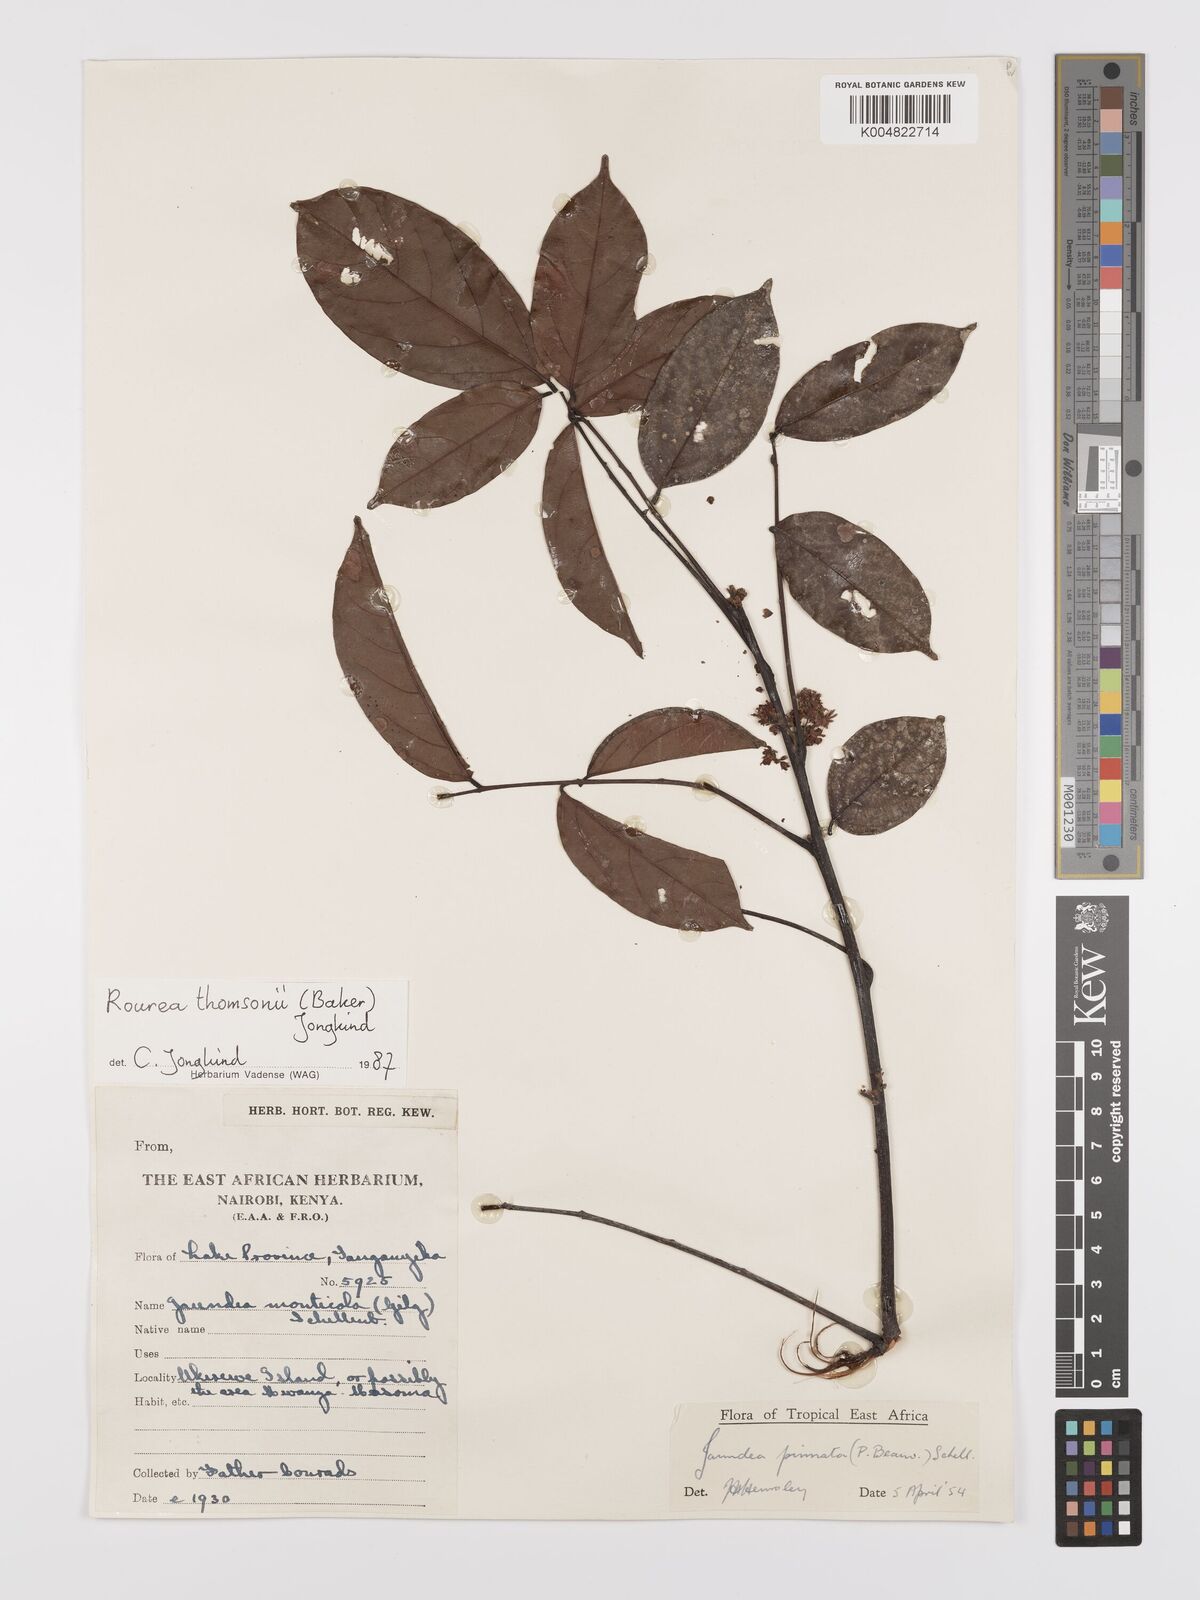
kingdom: Plantae
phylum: Tracheophyta
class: Magnoliopsida
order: Oxalidales
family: Connaraceae
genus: Rourea
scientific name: Rourea pinnata
